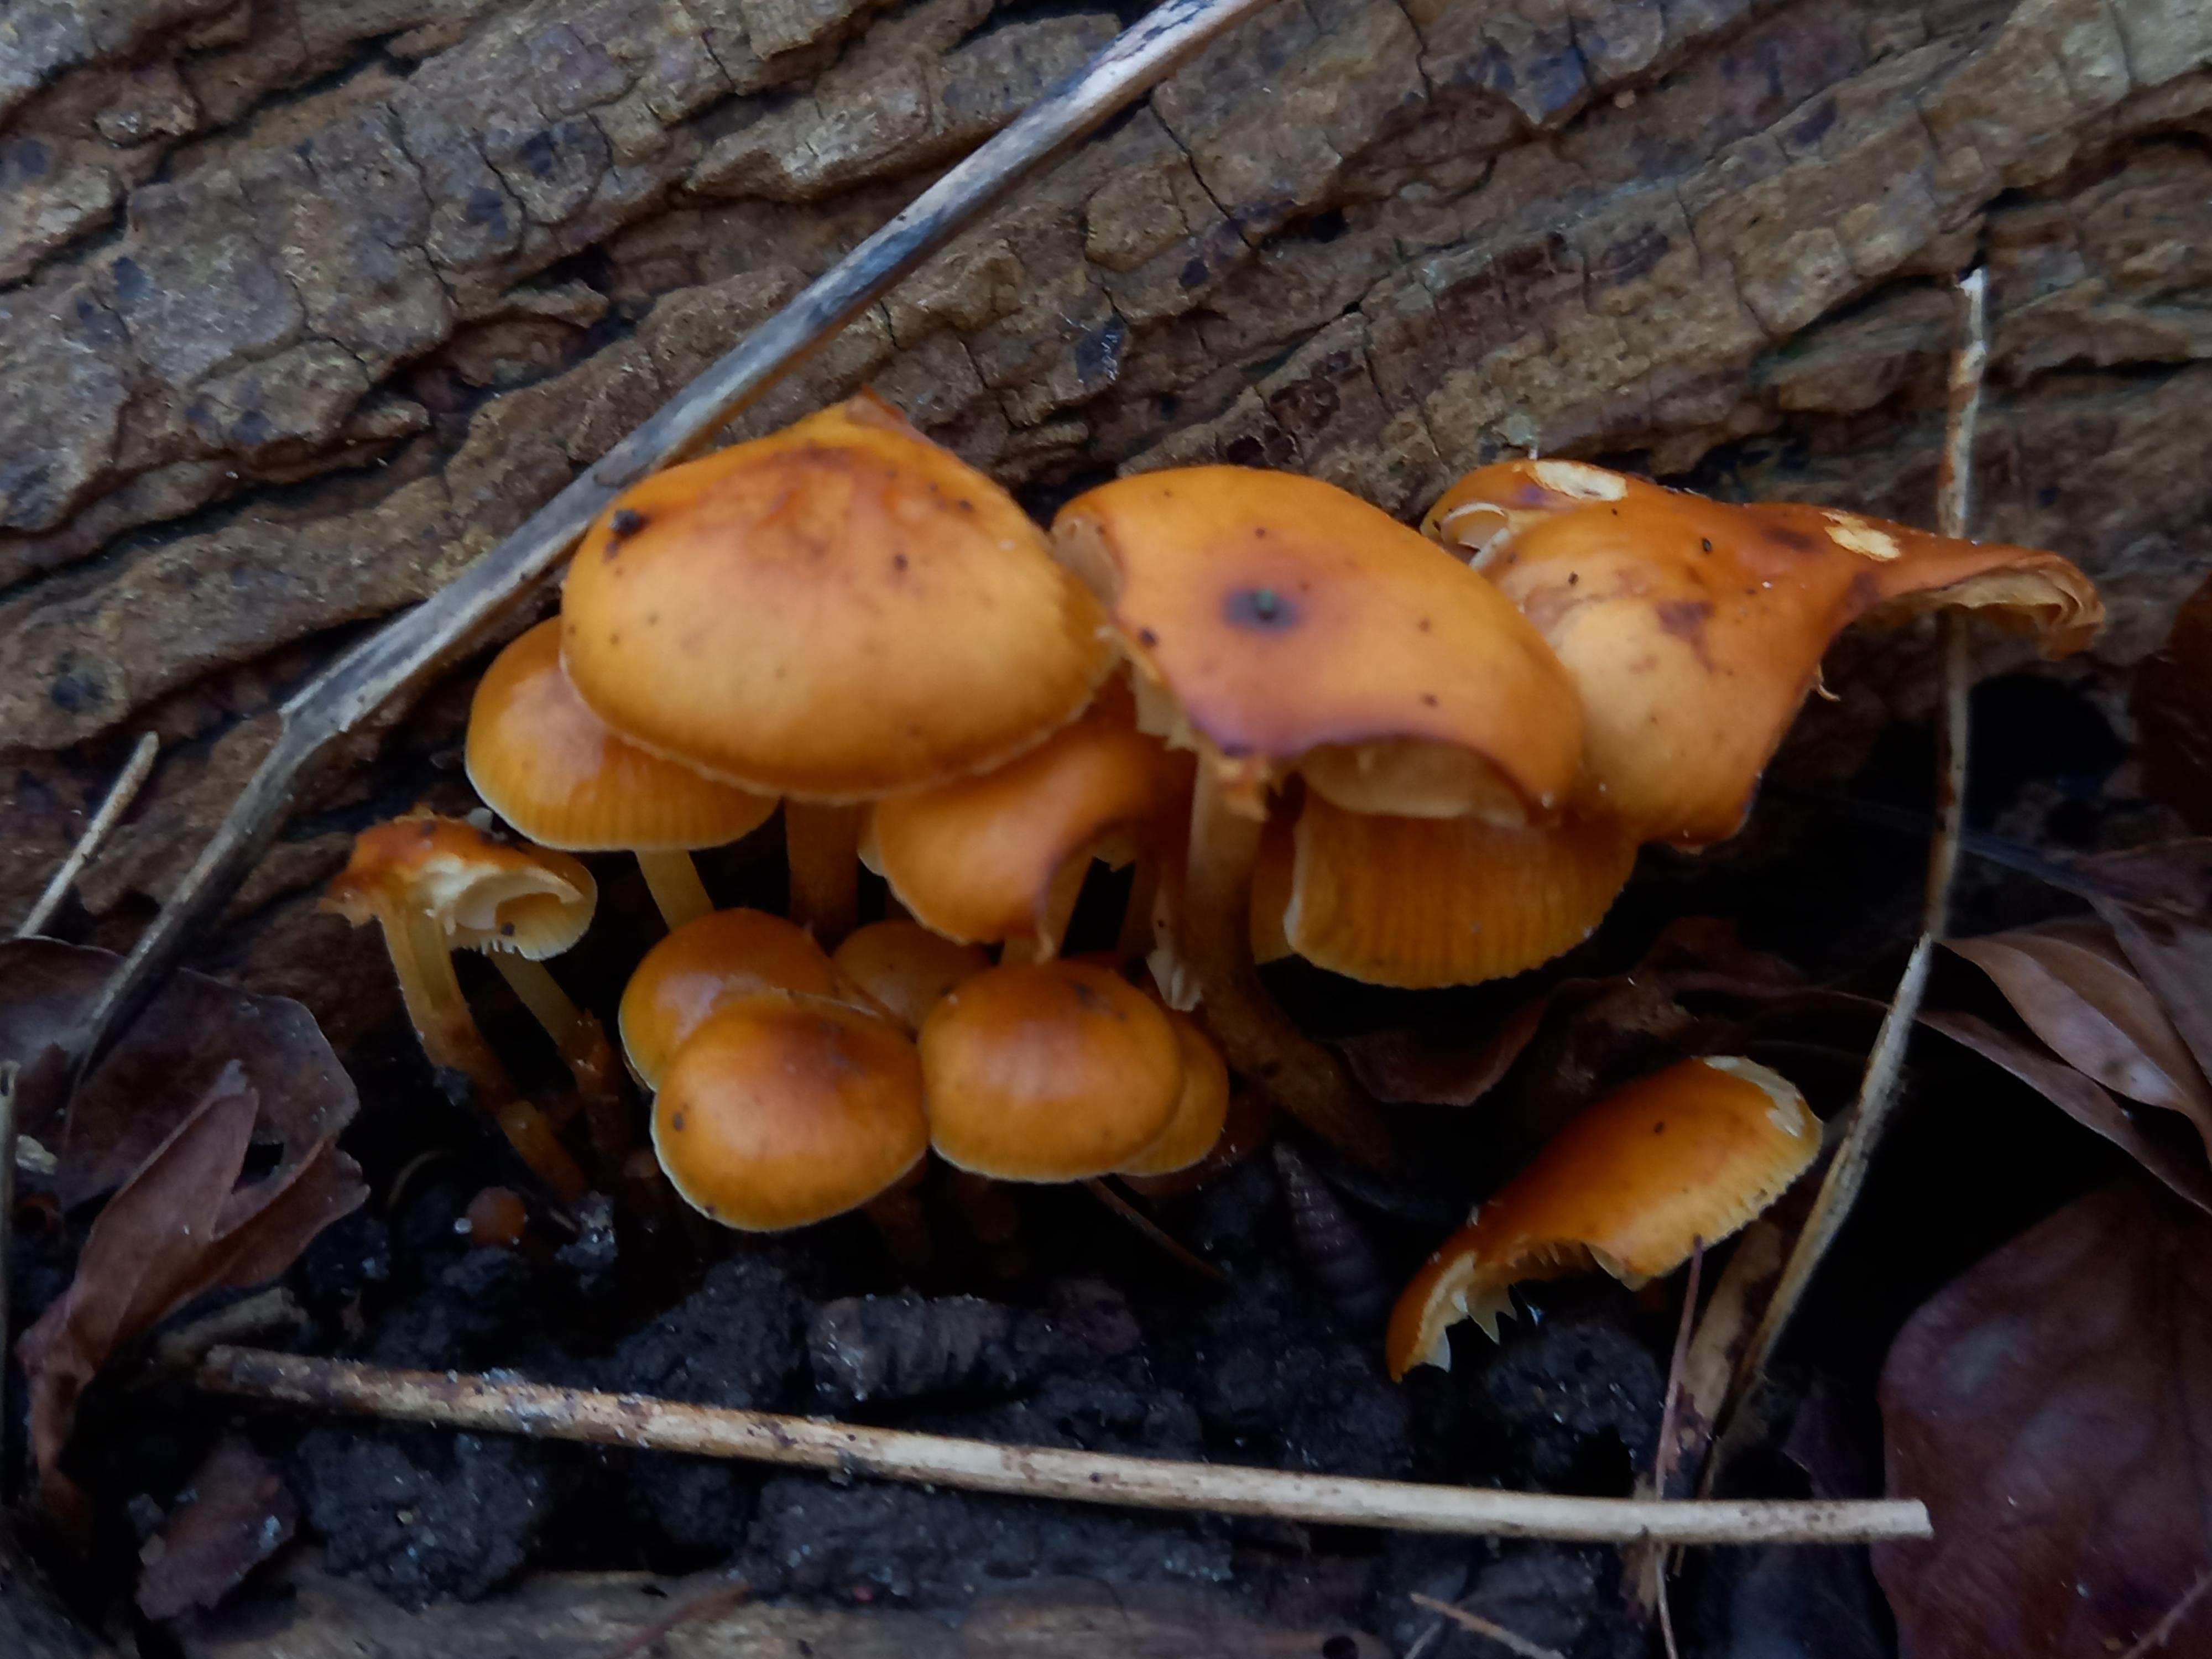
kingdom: Fungi
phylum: Basidiomycota
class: Agaricomycetes
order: Agaricales
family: Physalacriaceae
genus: Flammulina
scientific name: Flammulina velutipes
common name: gul fløjlsfod
